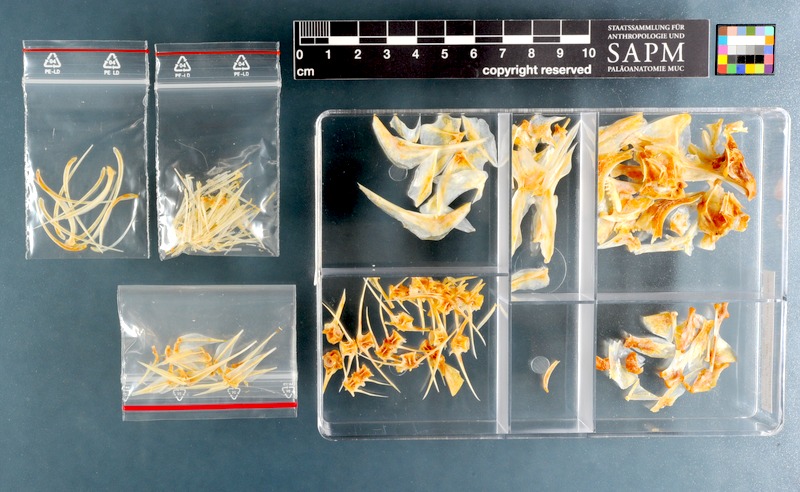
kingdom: Animalia
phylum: Chordata
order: Perciformes
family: Lethrinidae
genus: Lethrinus
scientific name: Lethrinus nebulosus
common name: Spangled emperor
